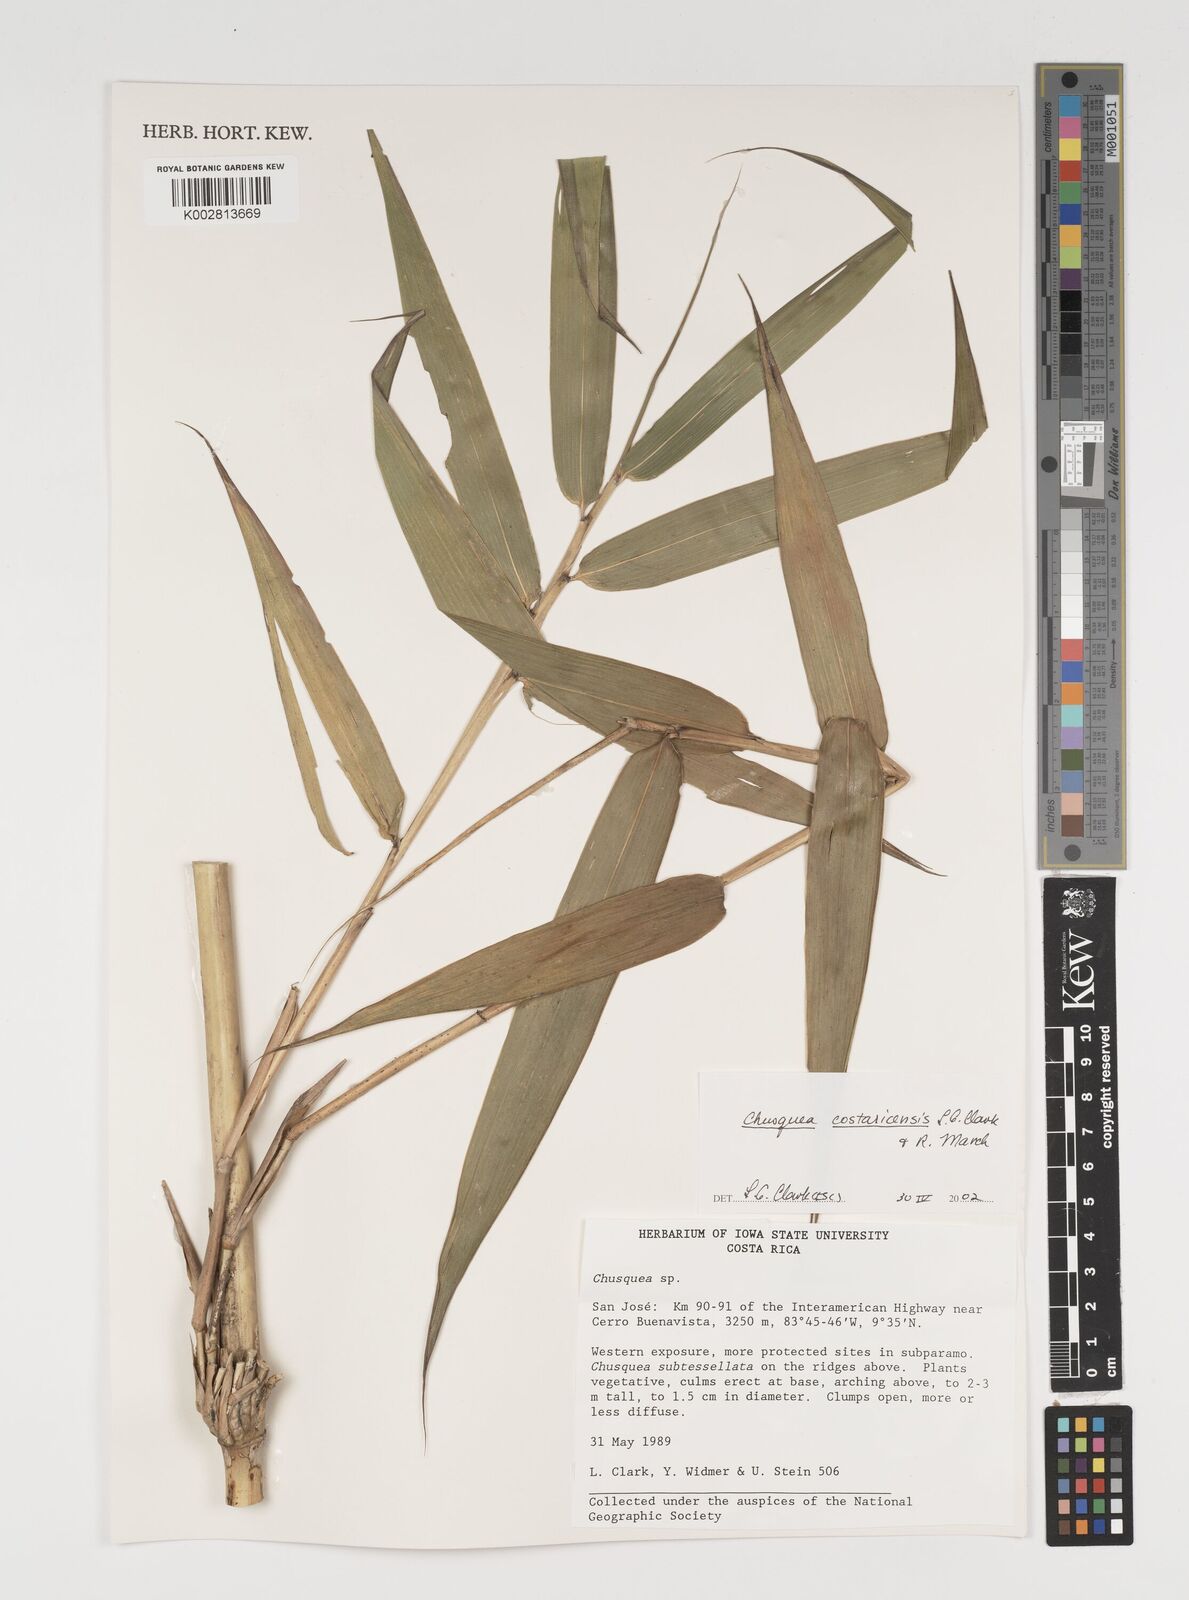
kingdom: Plantae
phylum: Tracheophyta
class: Liliopsida
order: Poales
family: Poaceae
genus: Chusquea
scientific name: Chusquea costaricensis
